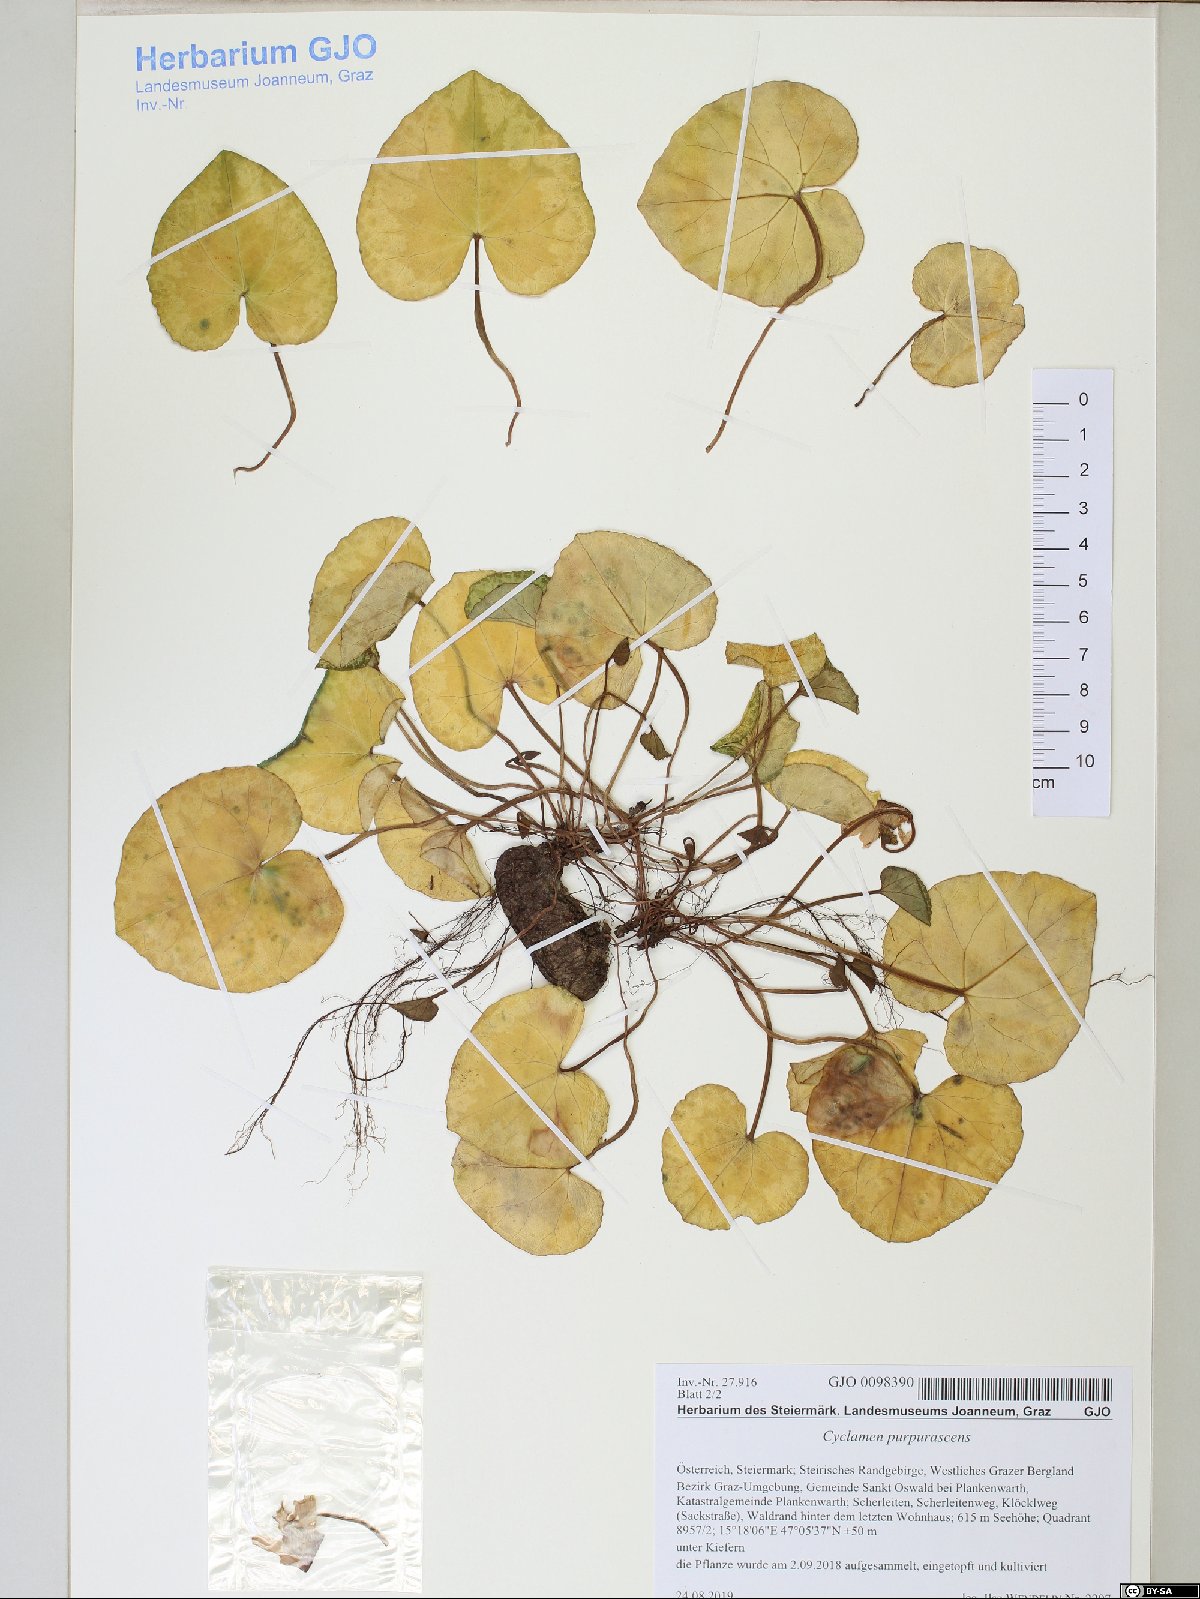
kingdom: Plantae
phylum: Tracheophyta
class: Magnoliopsida
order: Ericales
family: Primulaceae
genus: Cyclamen
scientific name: Cyclamen purpurascens
